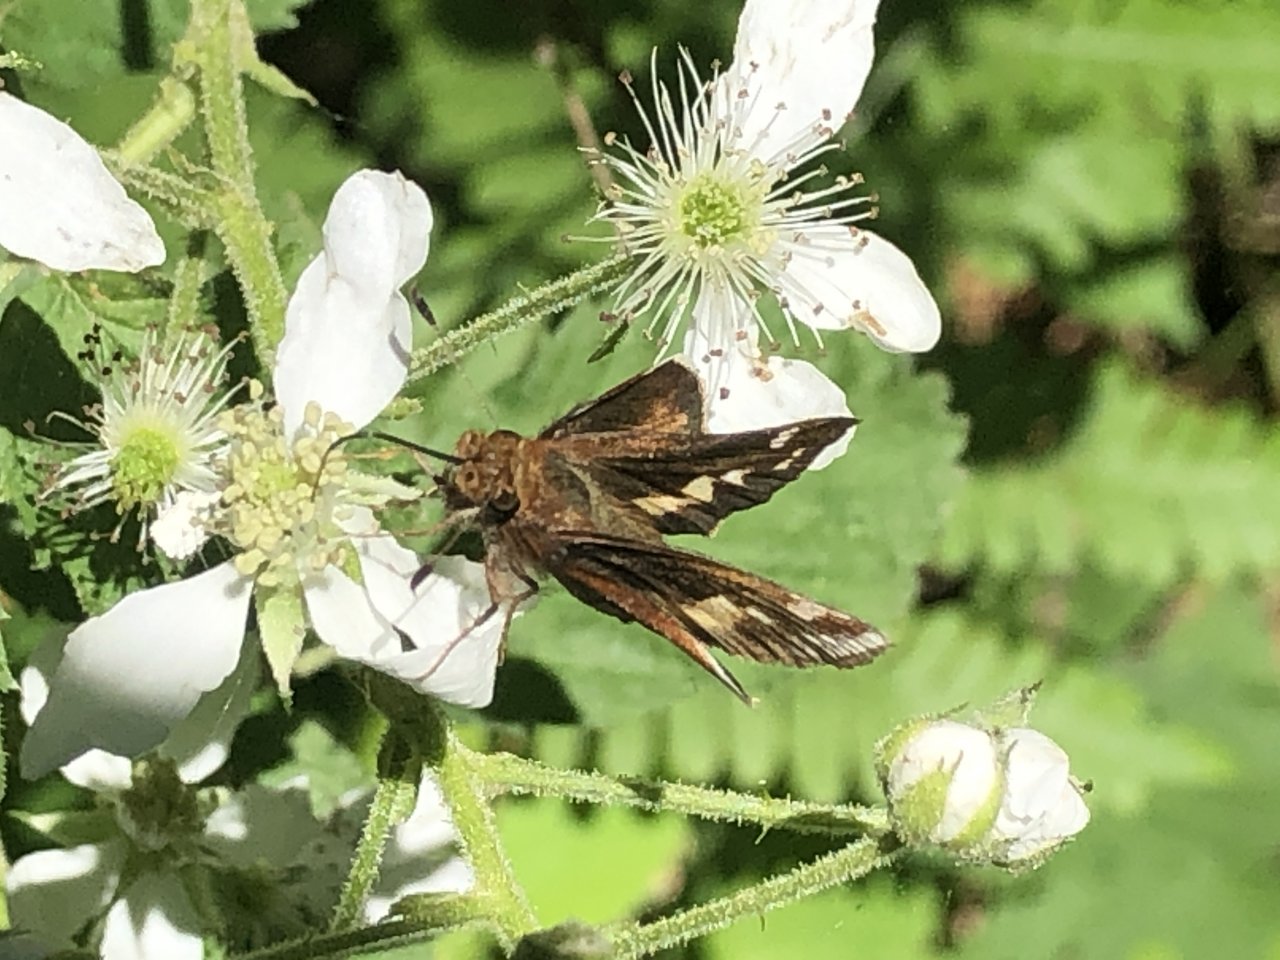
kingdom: Animalia
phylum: Arthropoda
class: Insecta
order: Lepidoptera
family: Hesperiidae
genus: Lon
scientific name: Lon zabulon
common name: Zabulon Skipper
